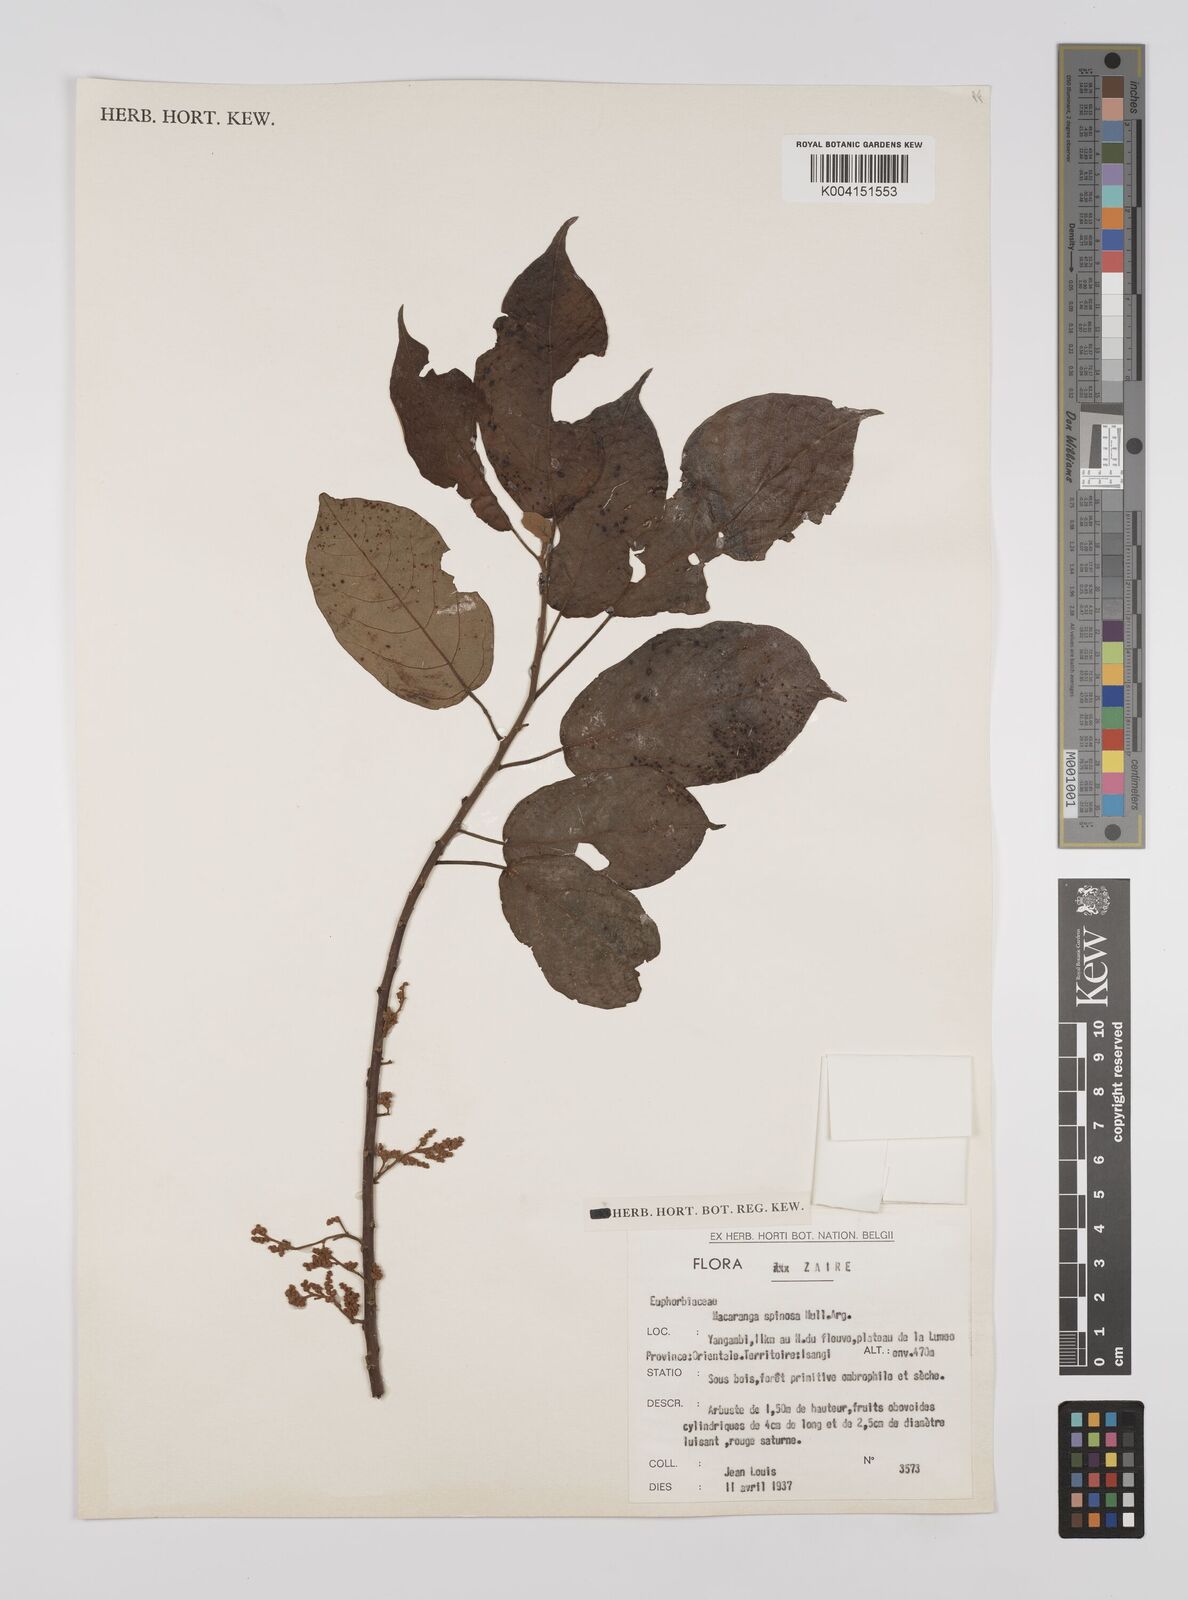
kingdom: Plantae
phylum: Tracheophyta
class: Magnoliopsida
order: Malpighiales
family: Euphorbiaceae
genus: Macaranga
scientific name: Macaranga spinosa
